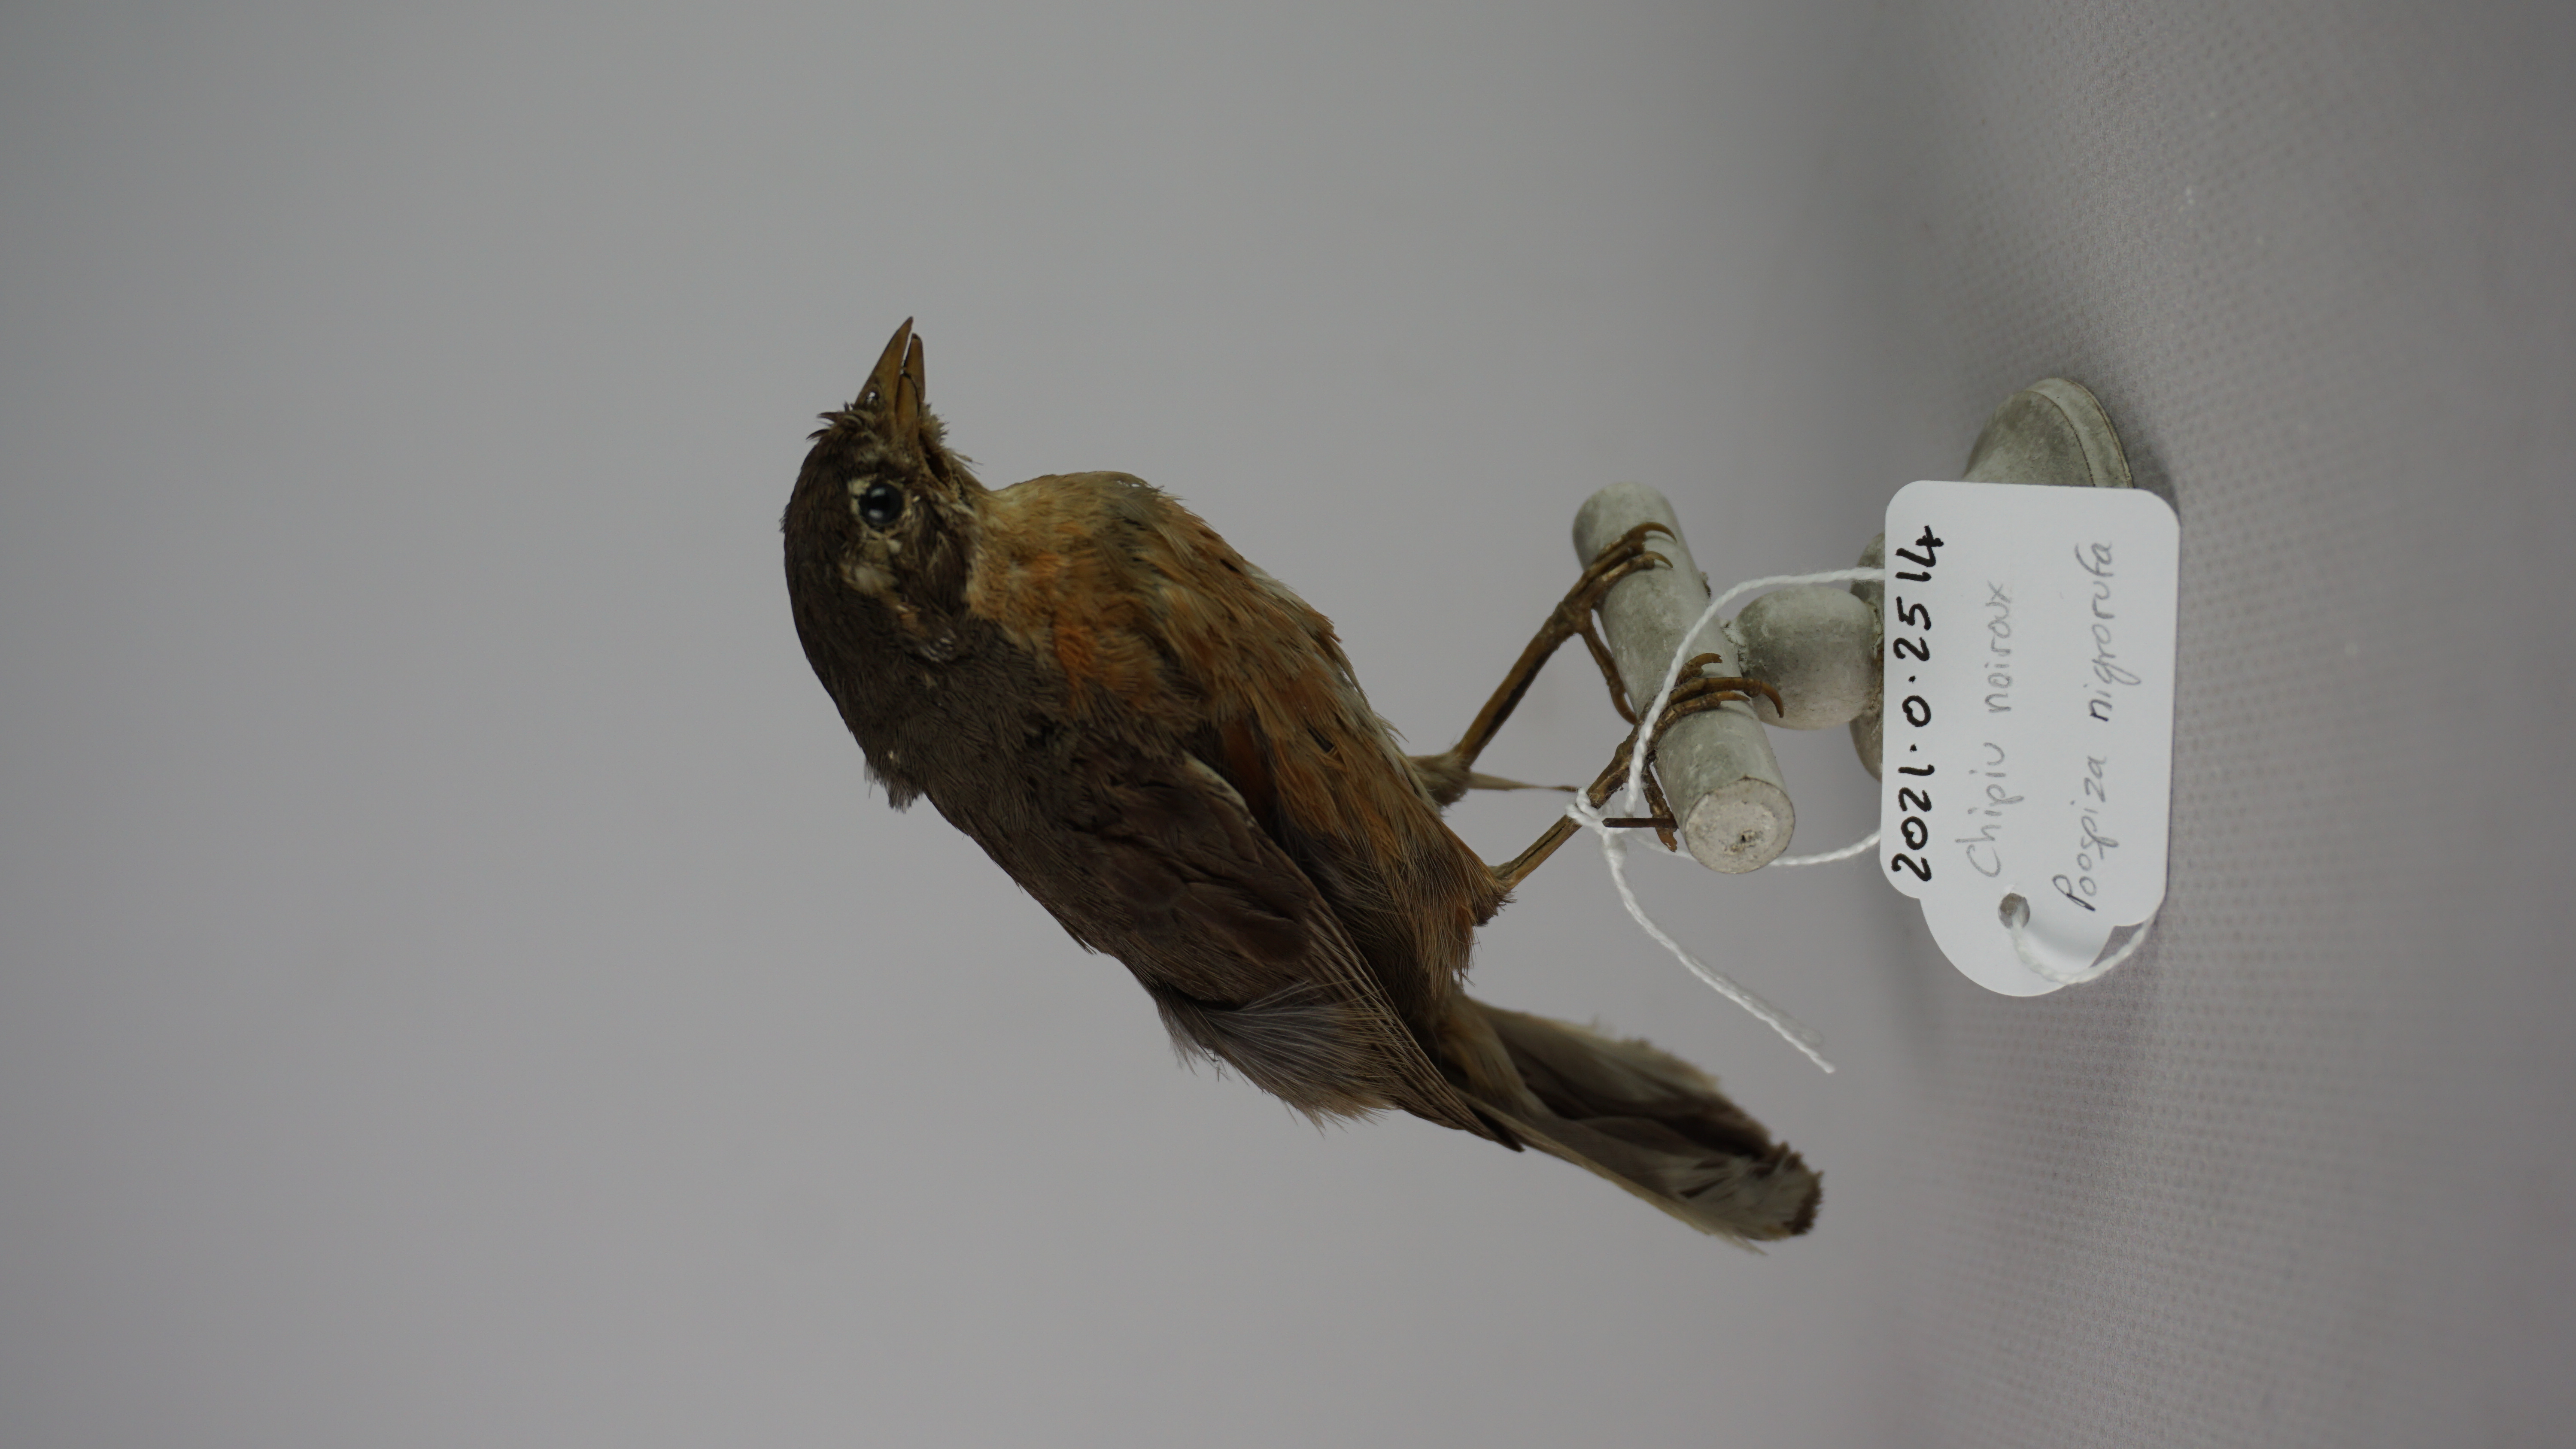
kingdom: Animalia
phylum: Chordata
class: Aves
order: Passeriformes
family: Thraupidae
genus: Poospiza
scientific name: Poospiza nigrorufa
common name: Black-and-rufous warbling finch
